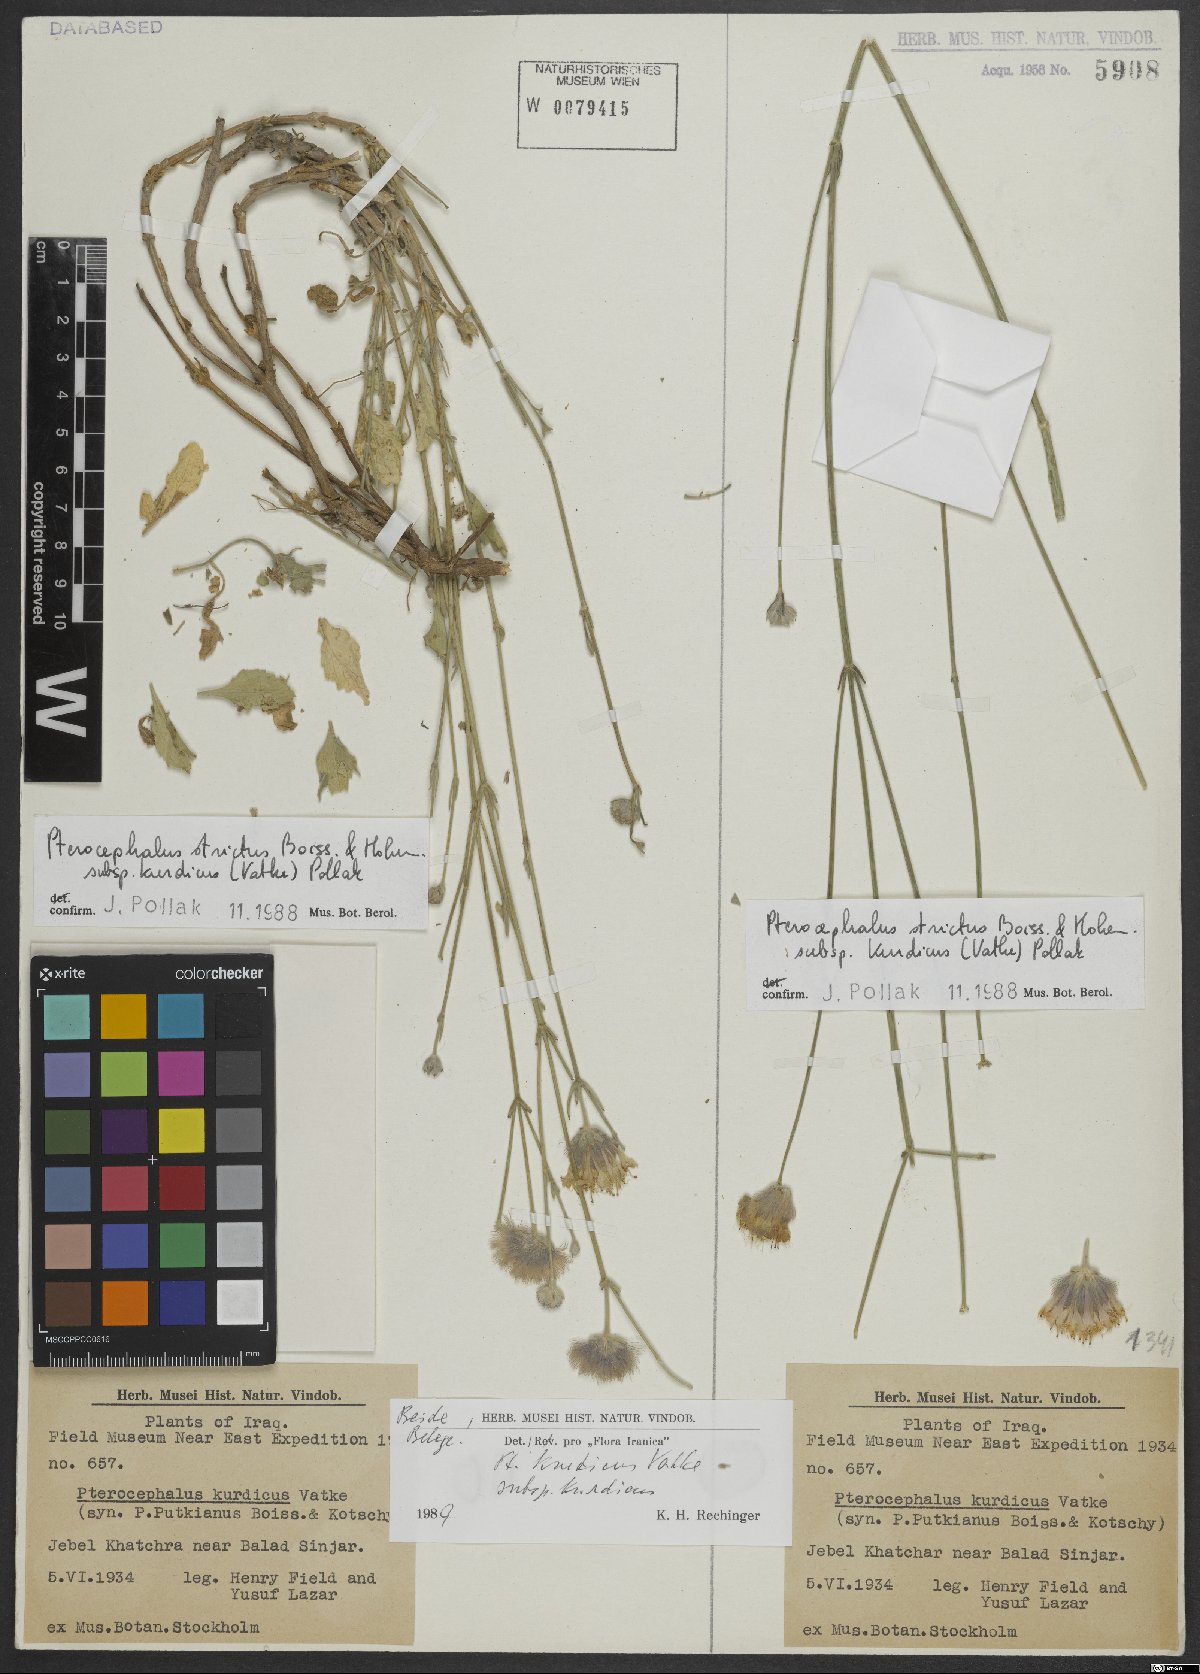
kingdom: Plantae
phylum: Tracheophyta
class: Magnoliopsida
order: Dipsacales
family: Caprifoliaceae
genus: Pterocephalus
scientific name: Pterocephalus kurdicus
